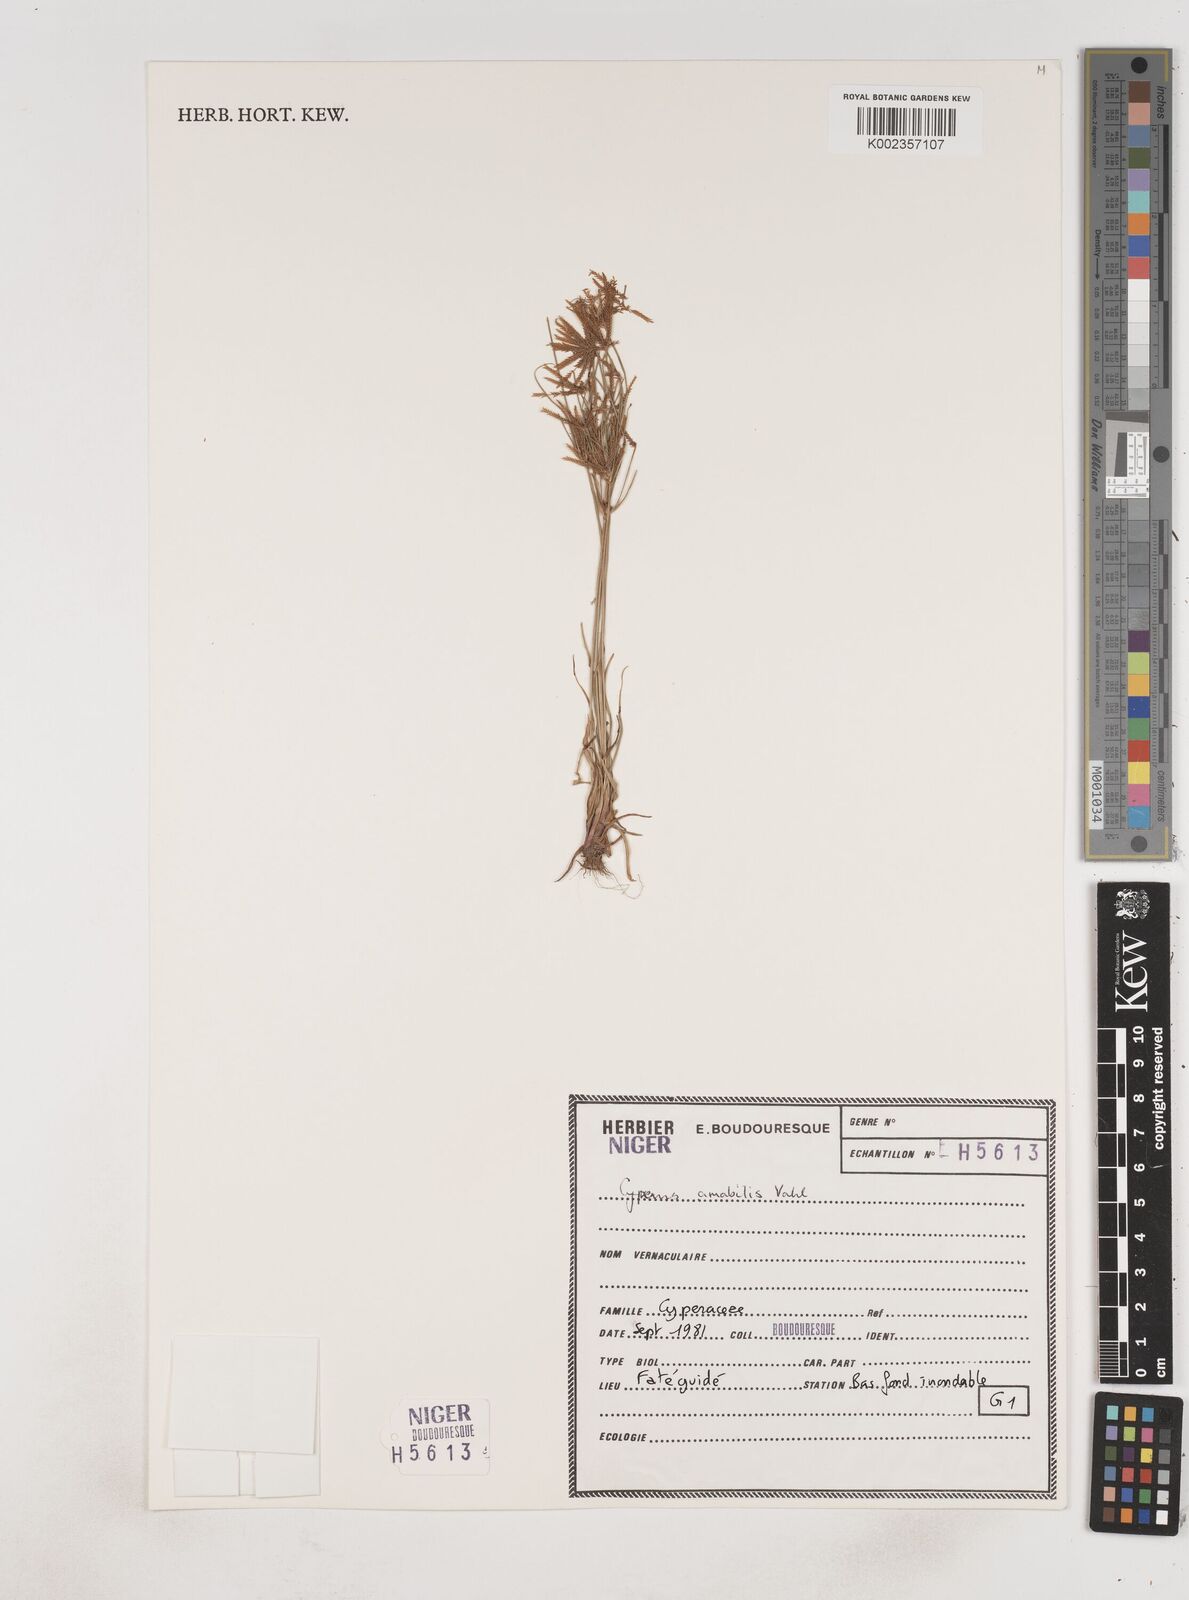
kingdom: Plantae
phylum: Tracheophyta
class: Liliopsida
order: Poales
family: Cyperaceae
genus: Cyperus
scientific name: Cyperus amabilis
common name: Foothill flat sedge
